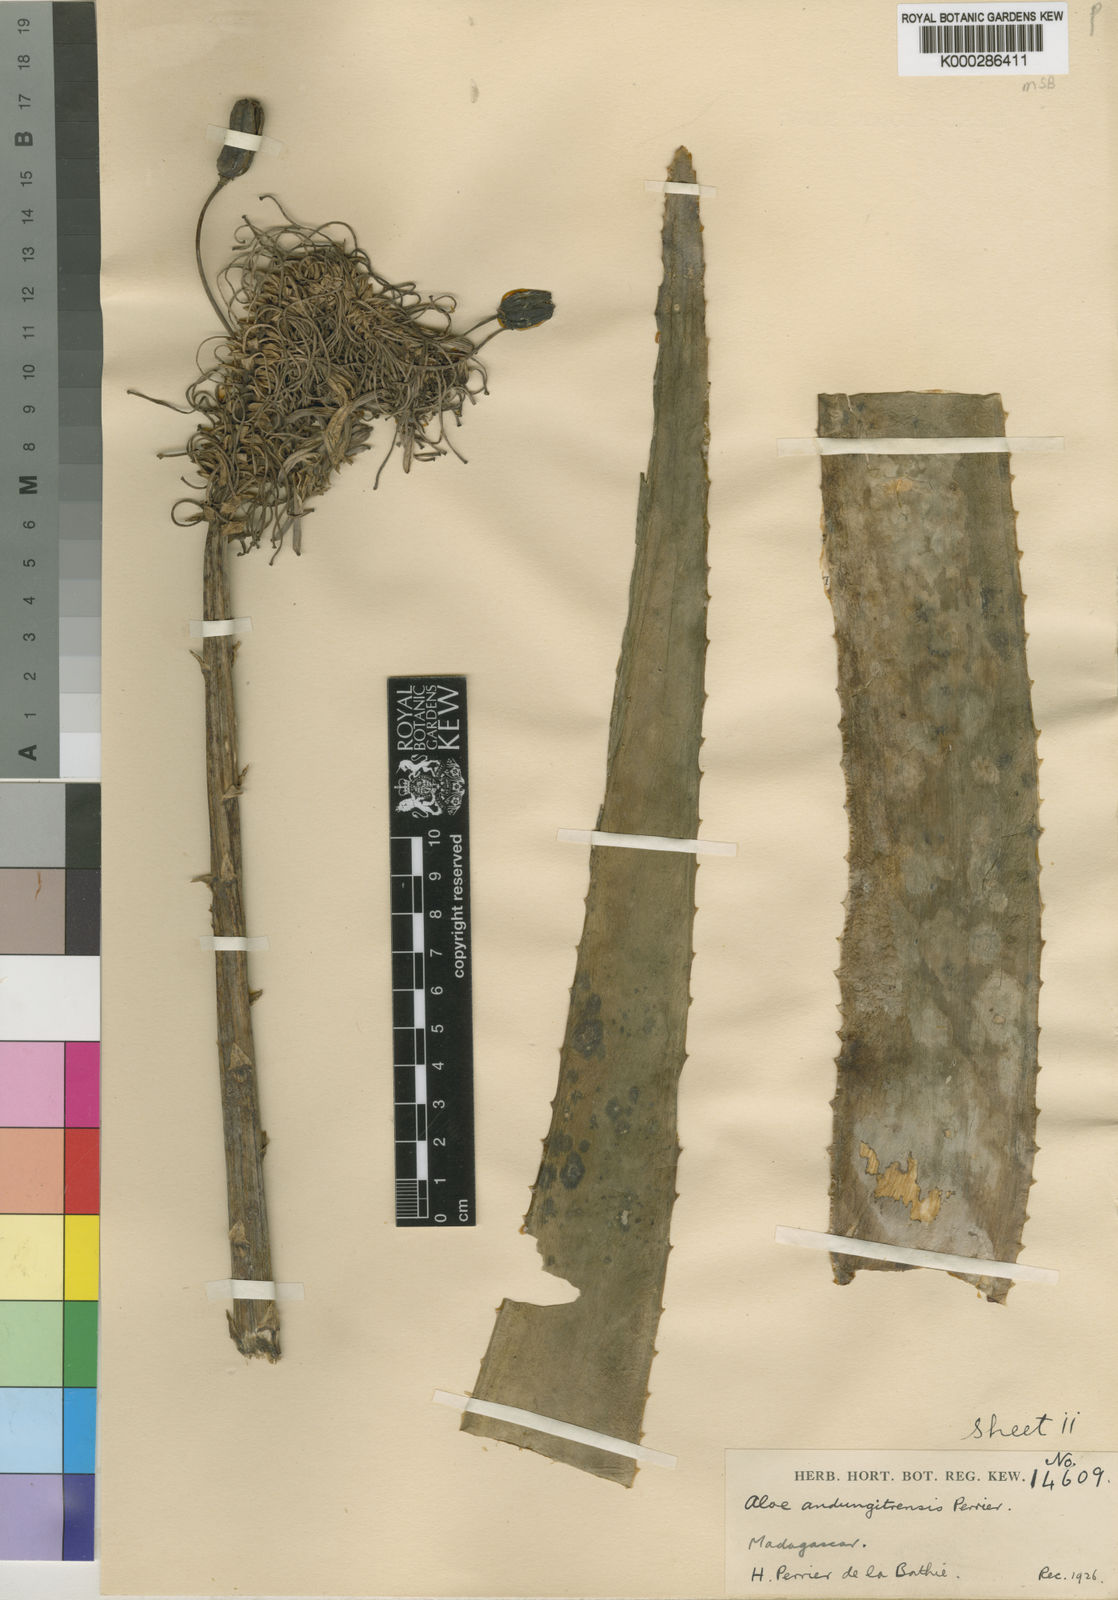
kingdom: Plantae
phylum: Tracheophyta
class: Liliopsida
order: Asparagales
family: Asphodelaceae
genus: Aloe
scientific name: Aloe
